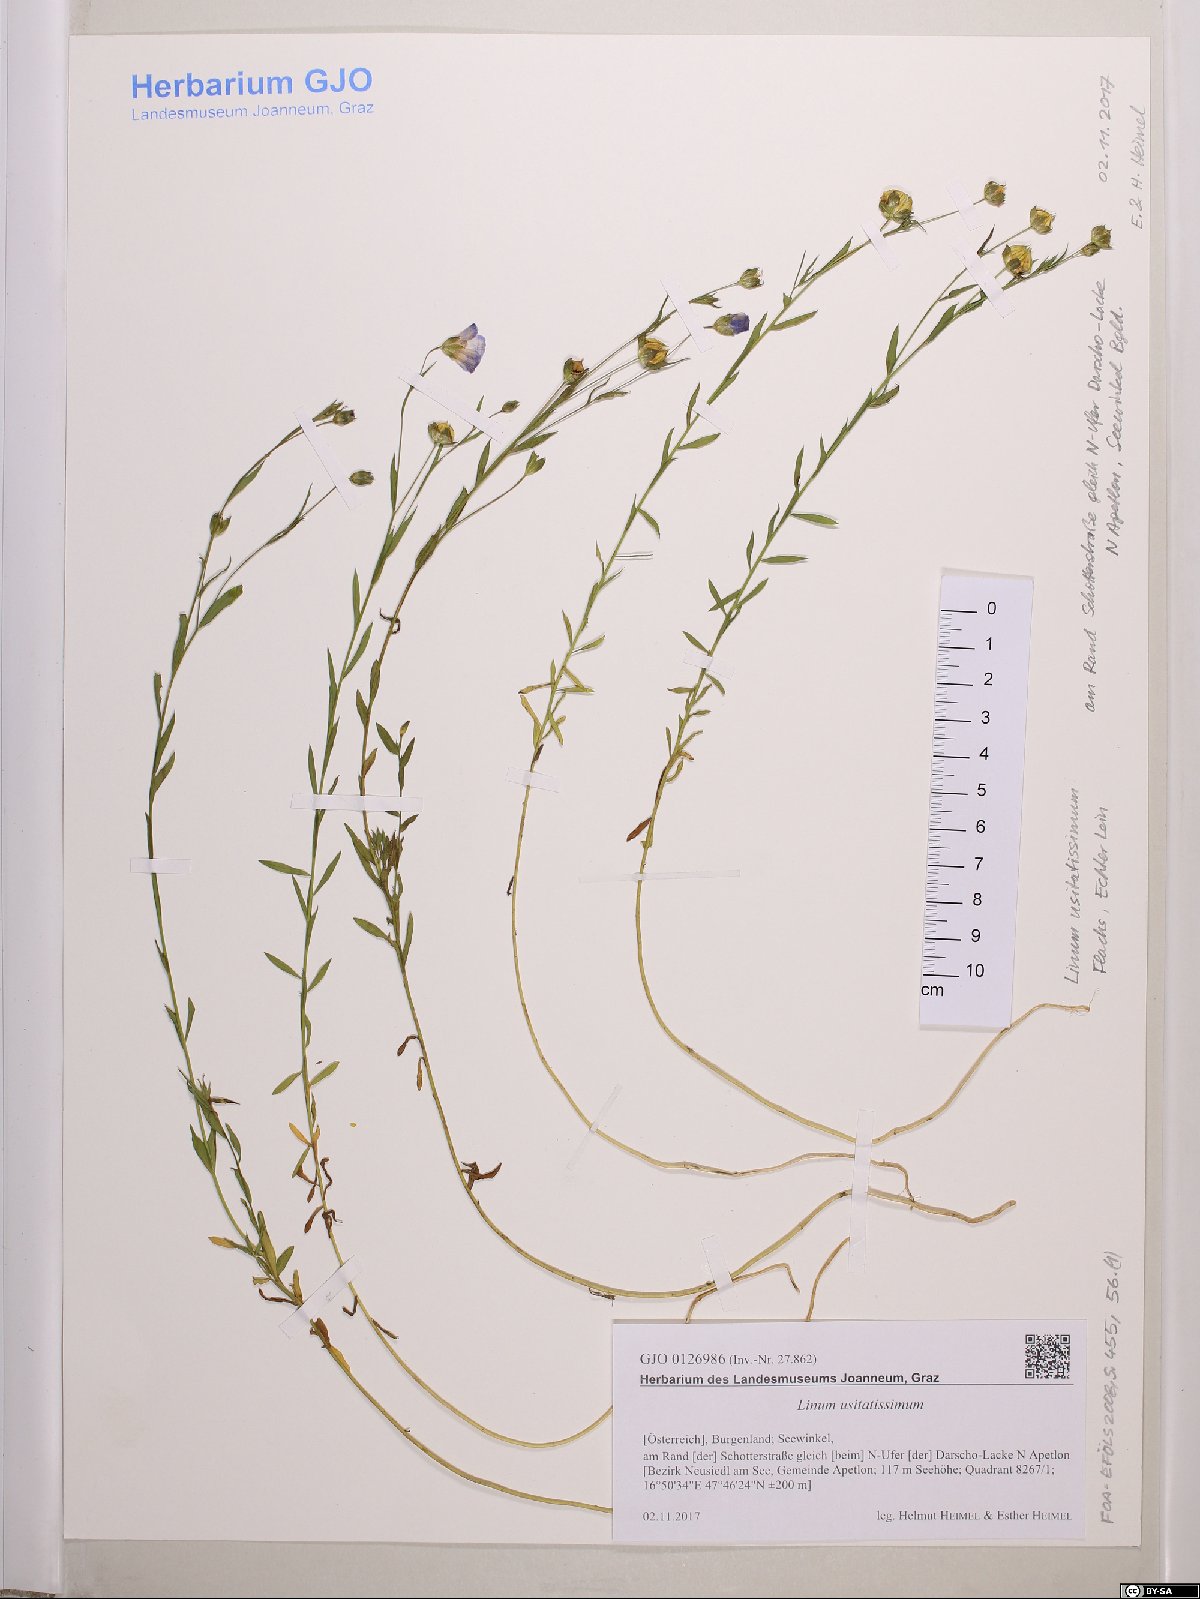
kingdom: Plantae
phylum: Tracheophyta
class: Magnoliopsida
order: Malpighiales
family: Linaceae
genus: Linum
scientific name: Linum usitatissimum
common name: Flax
